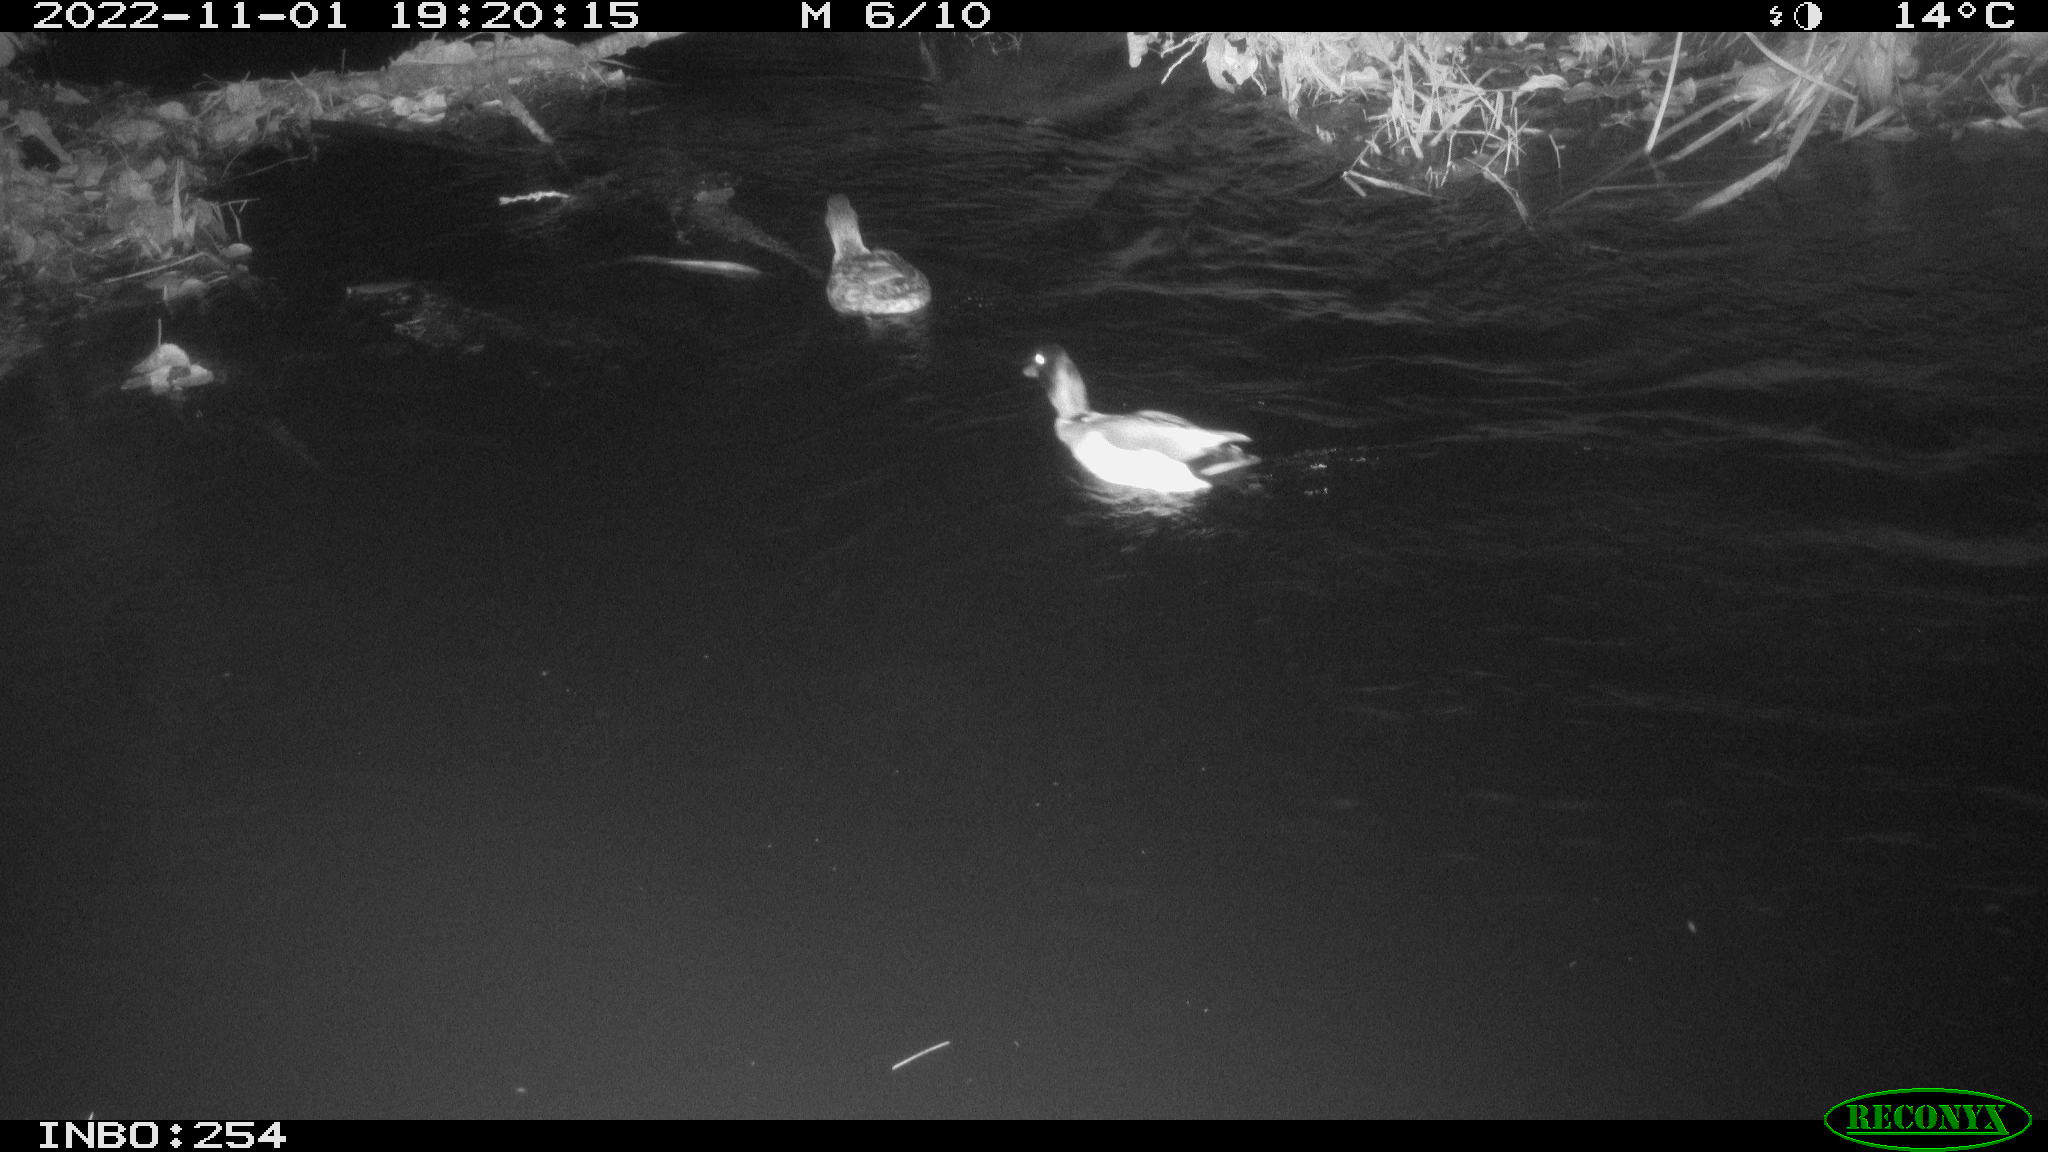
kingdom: Animalia
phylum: Chordata
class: Aves
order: Anseriformes
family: Anatidae
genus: Anas
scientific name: Anas
